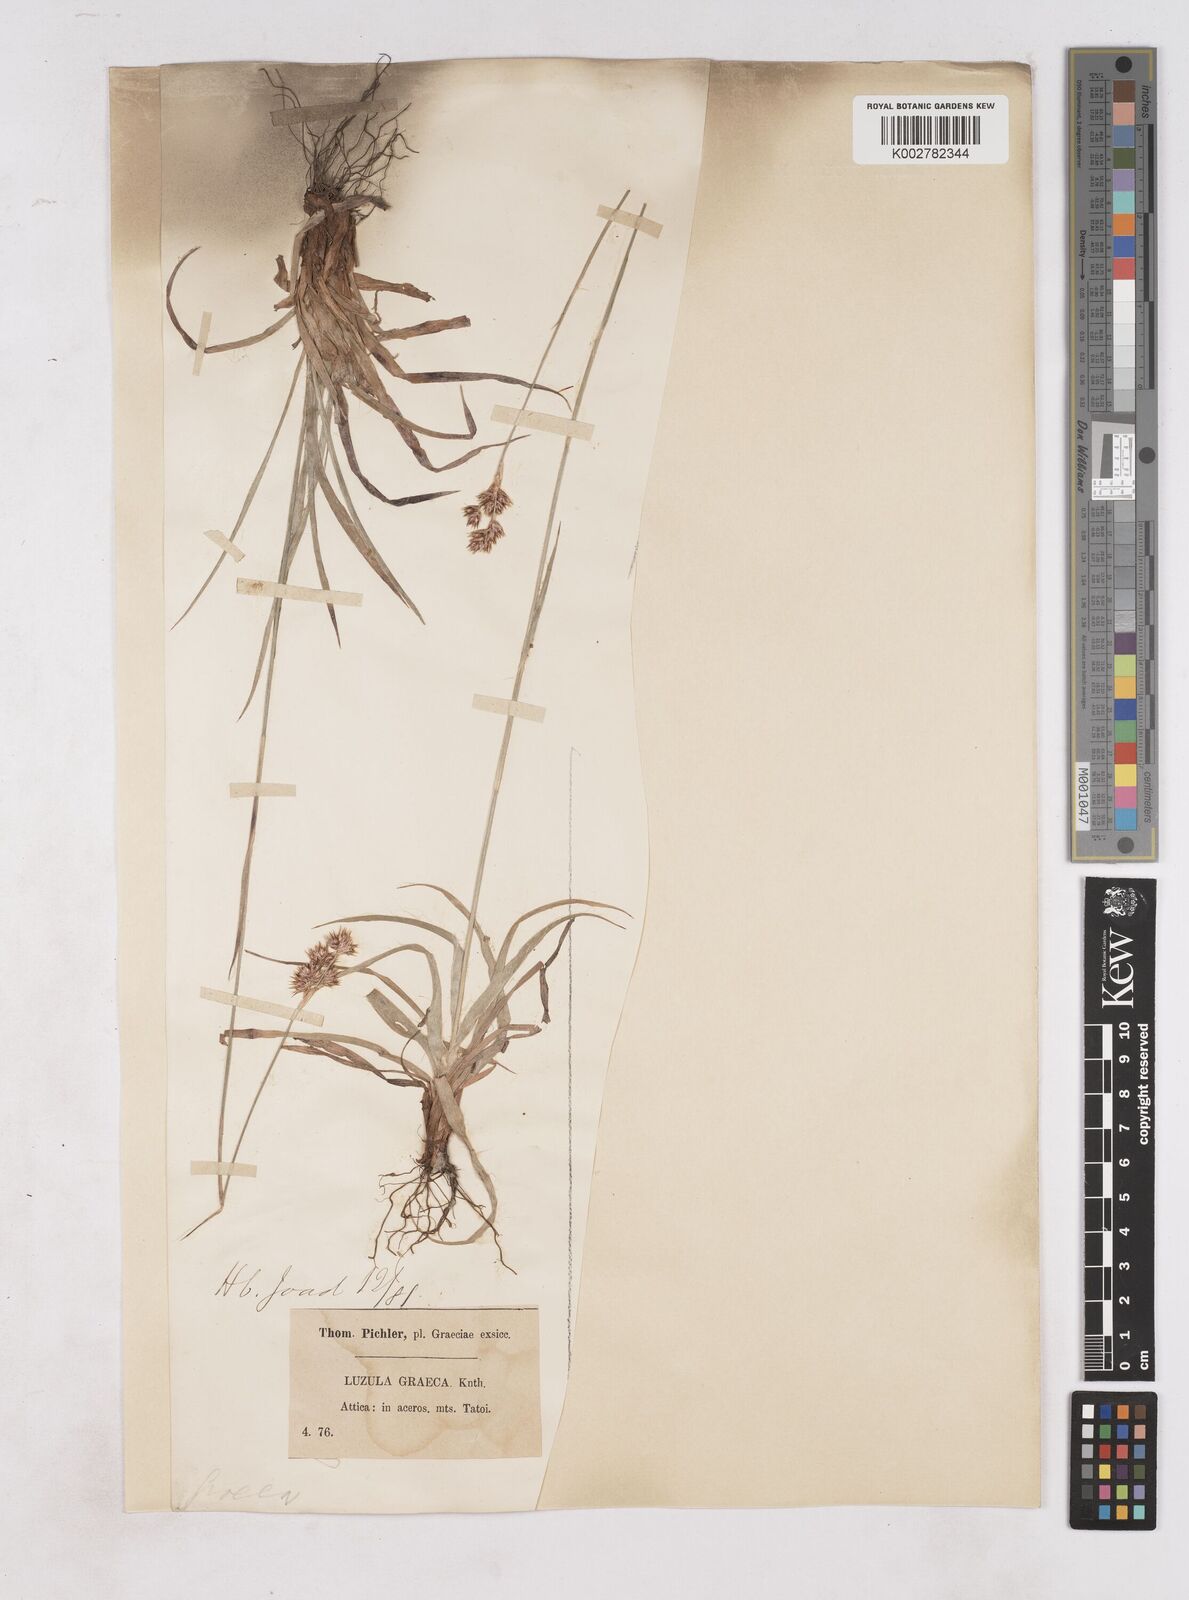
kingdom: Plantae
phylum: Tracheophyta
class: Liliopsida
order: Poales
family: Juncaceae
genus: Luzula
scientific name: Luzula nodulosa
